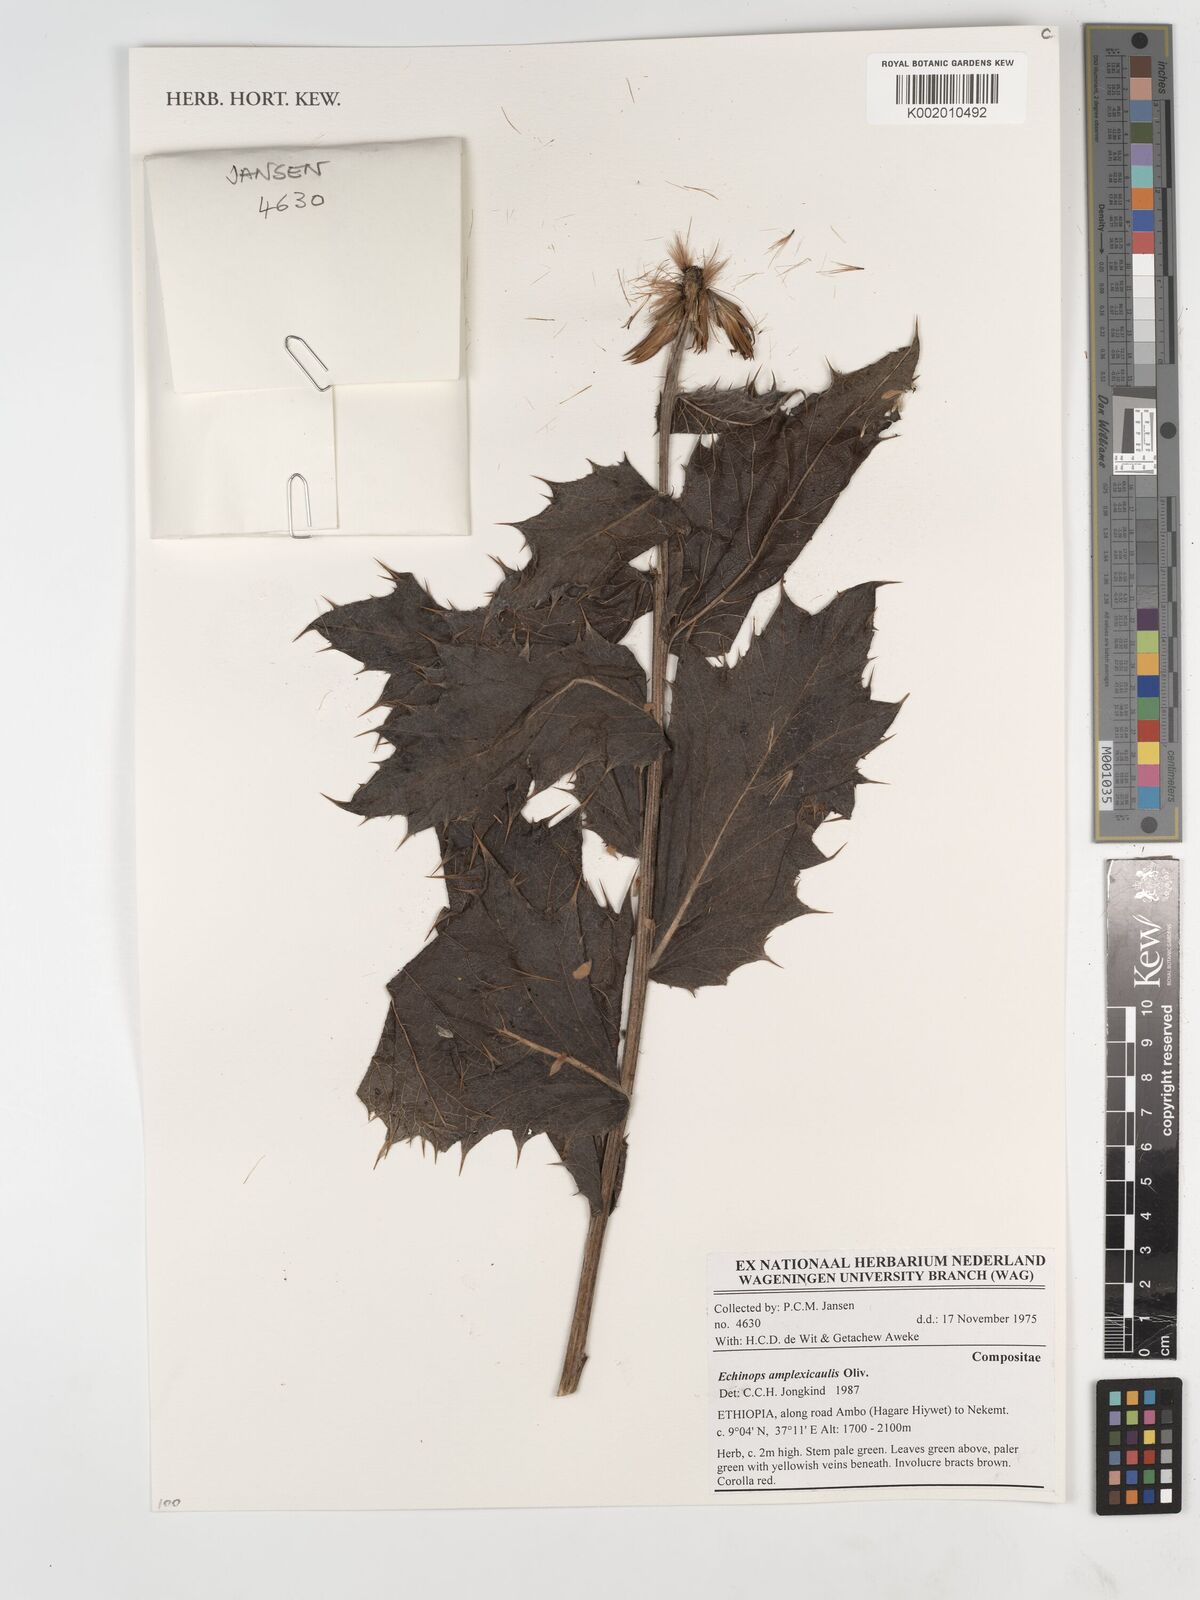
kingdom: Plantae
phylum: Tracheophyta
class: Magnoliopsida
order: Asterales
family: Asteraceae
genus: Echinops
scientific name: Echinops amplexicaulis
